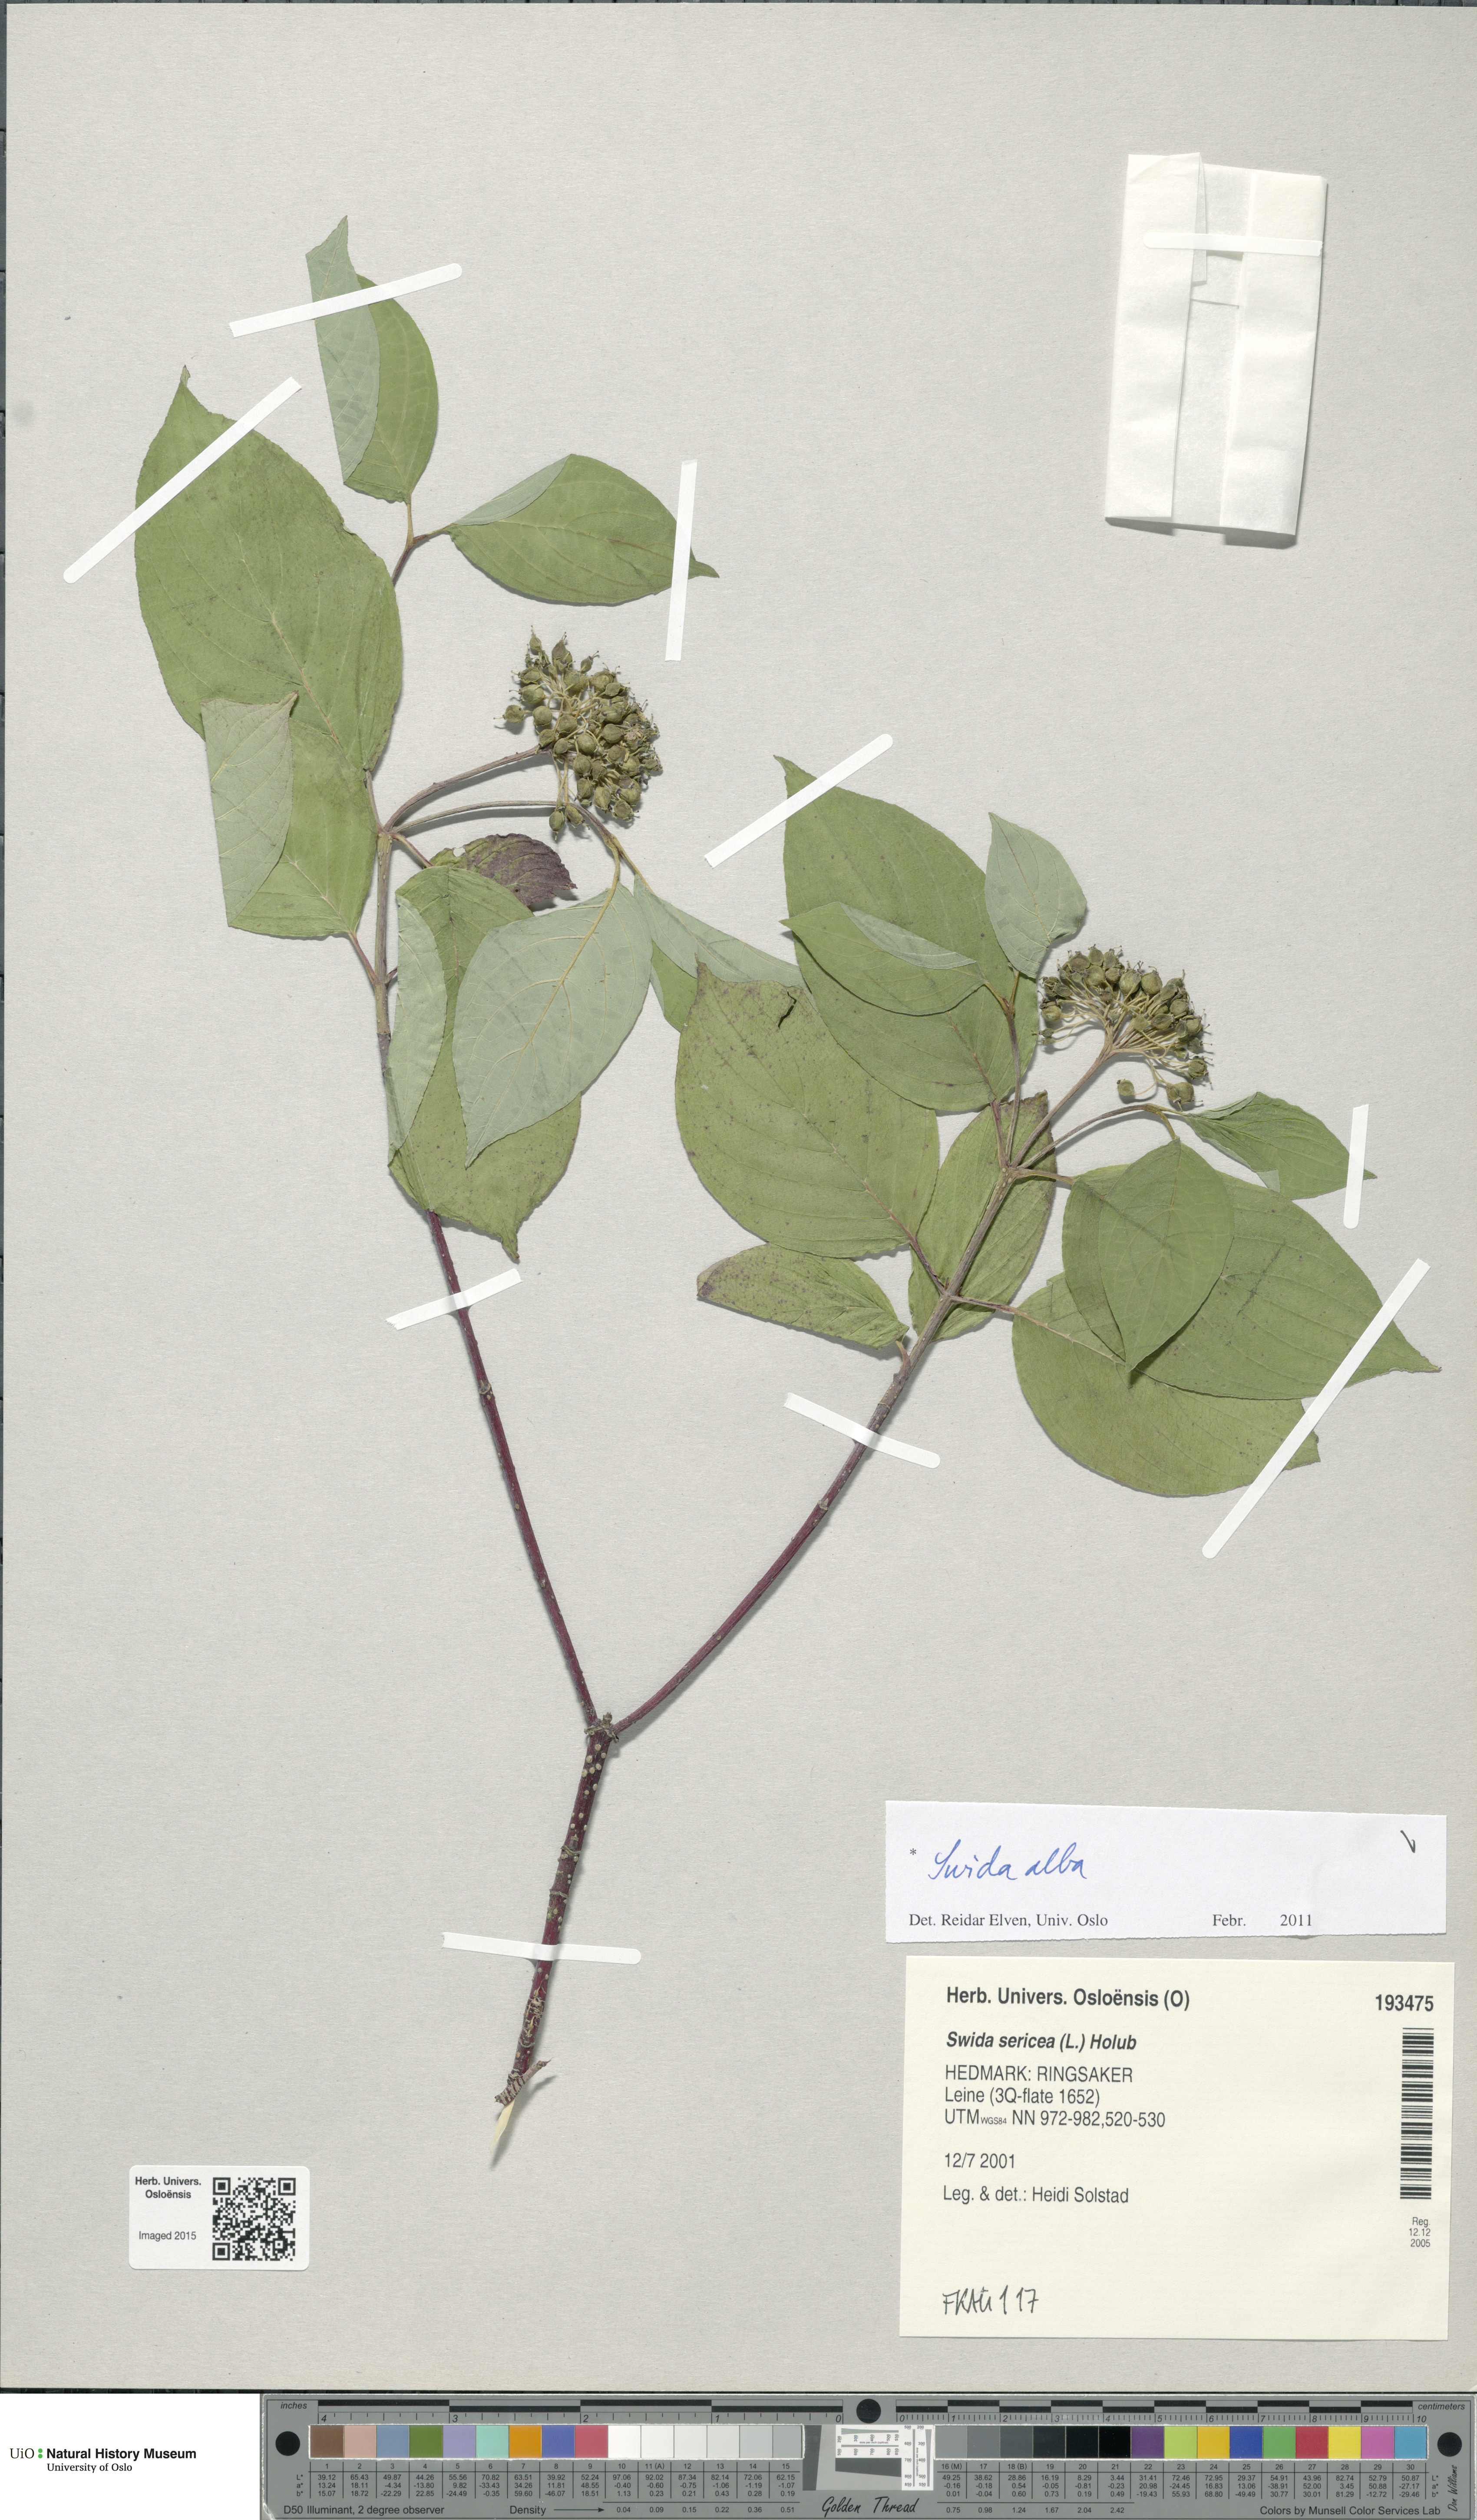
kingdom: Plantae
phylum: Tracheophyta
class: Magnoliopsida
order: Cornales
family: Cornaceae
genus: Cornus
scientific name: Cornus sericea
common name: Red-osier dogwood
